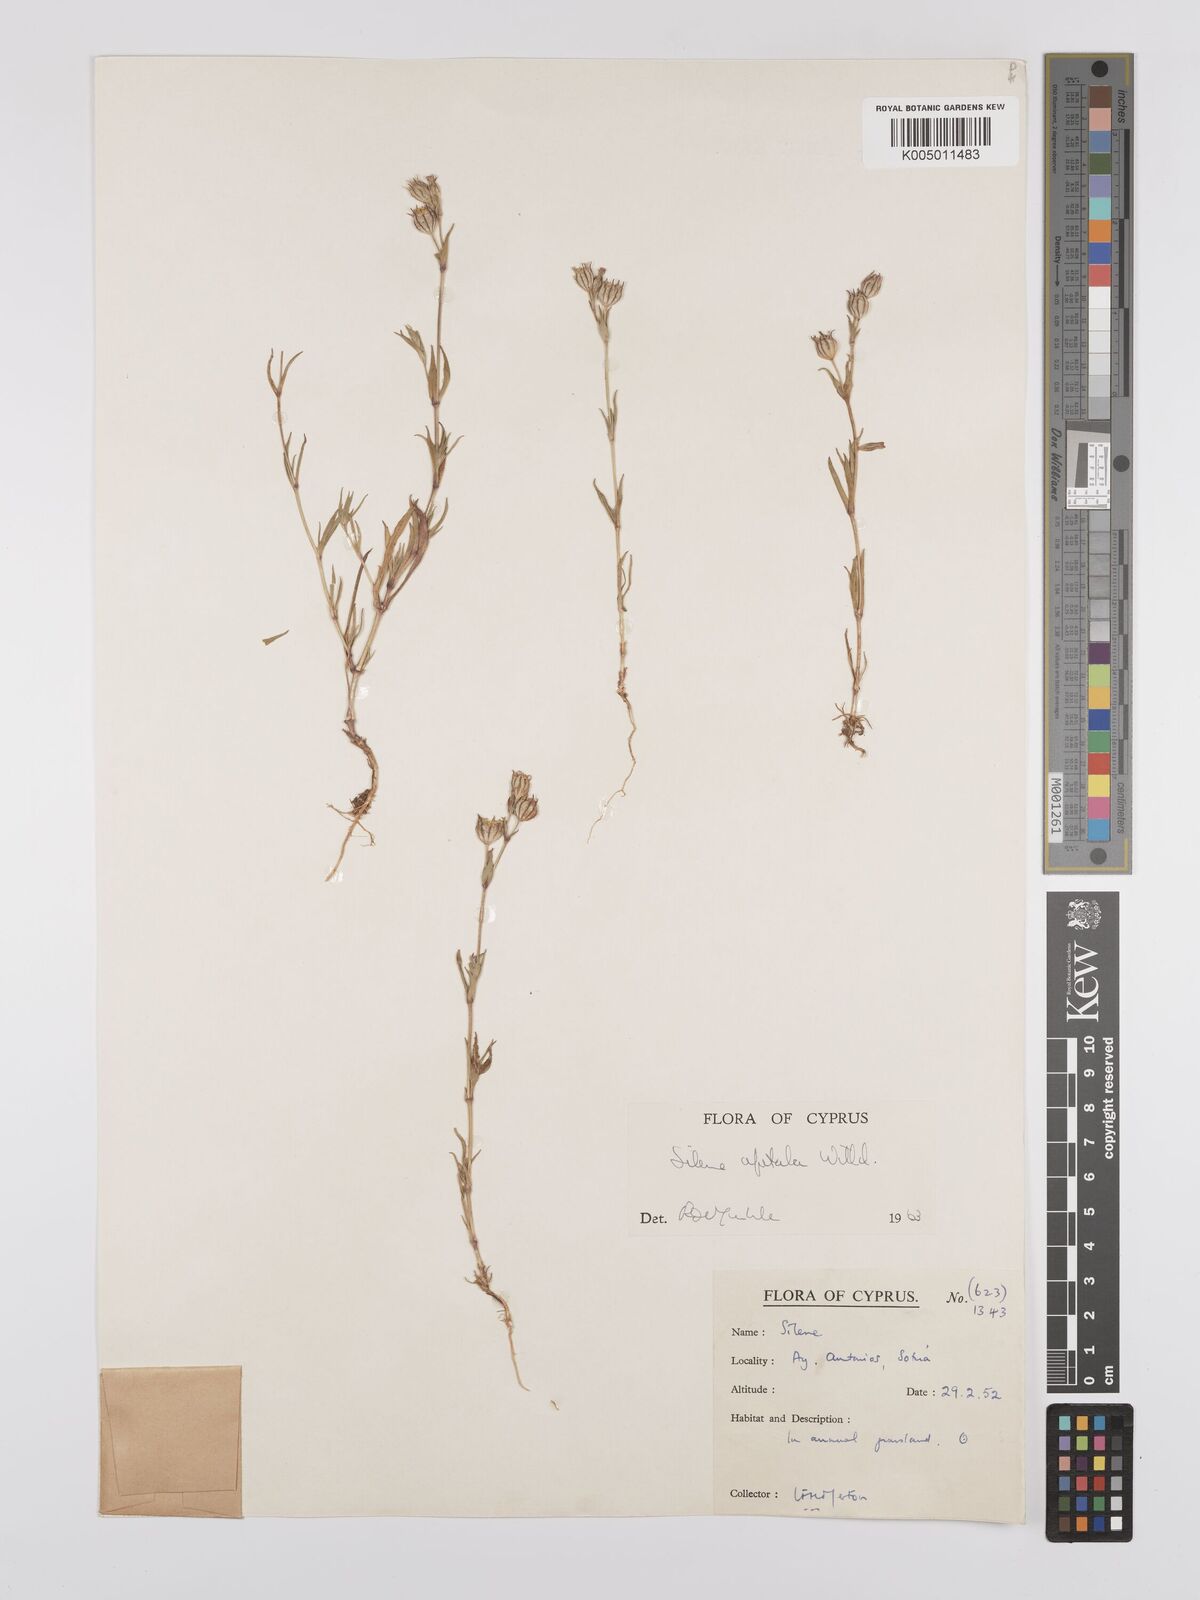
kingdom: Plantae
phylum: Tracheophyta
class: Magnoliopsida
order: Caryophyllales
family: Caryophyllaceae
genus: Silene
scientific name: Silene apetala
